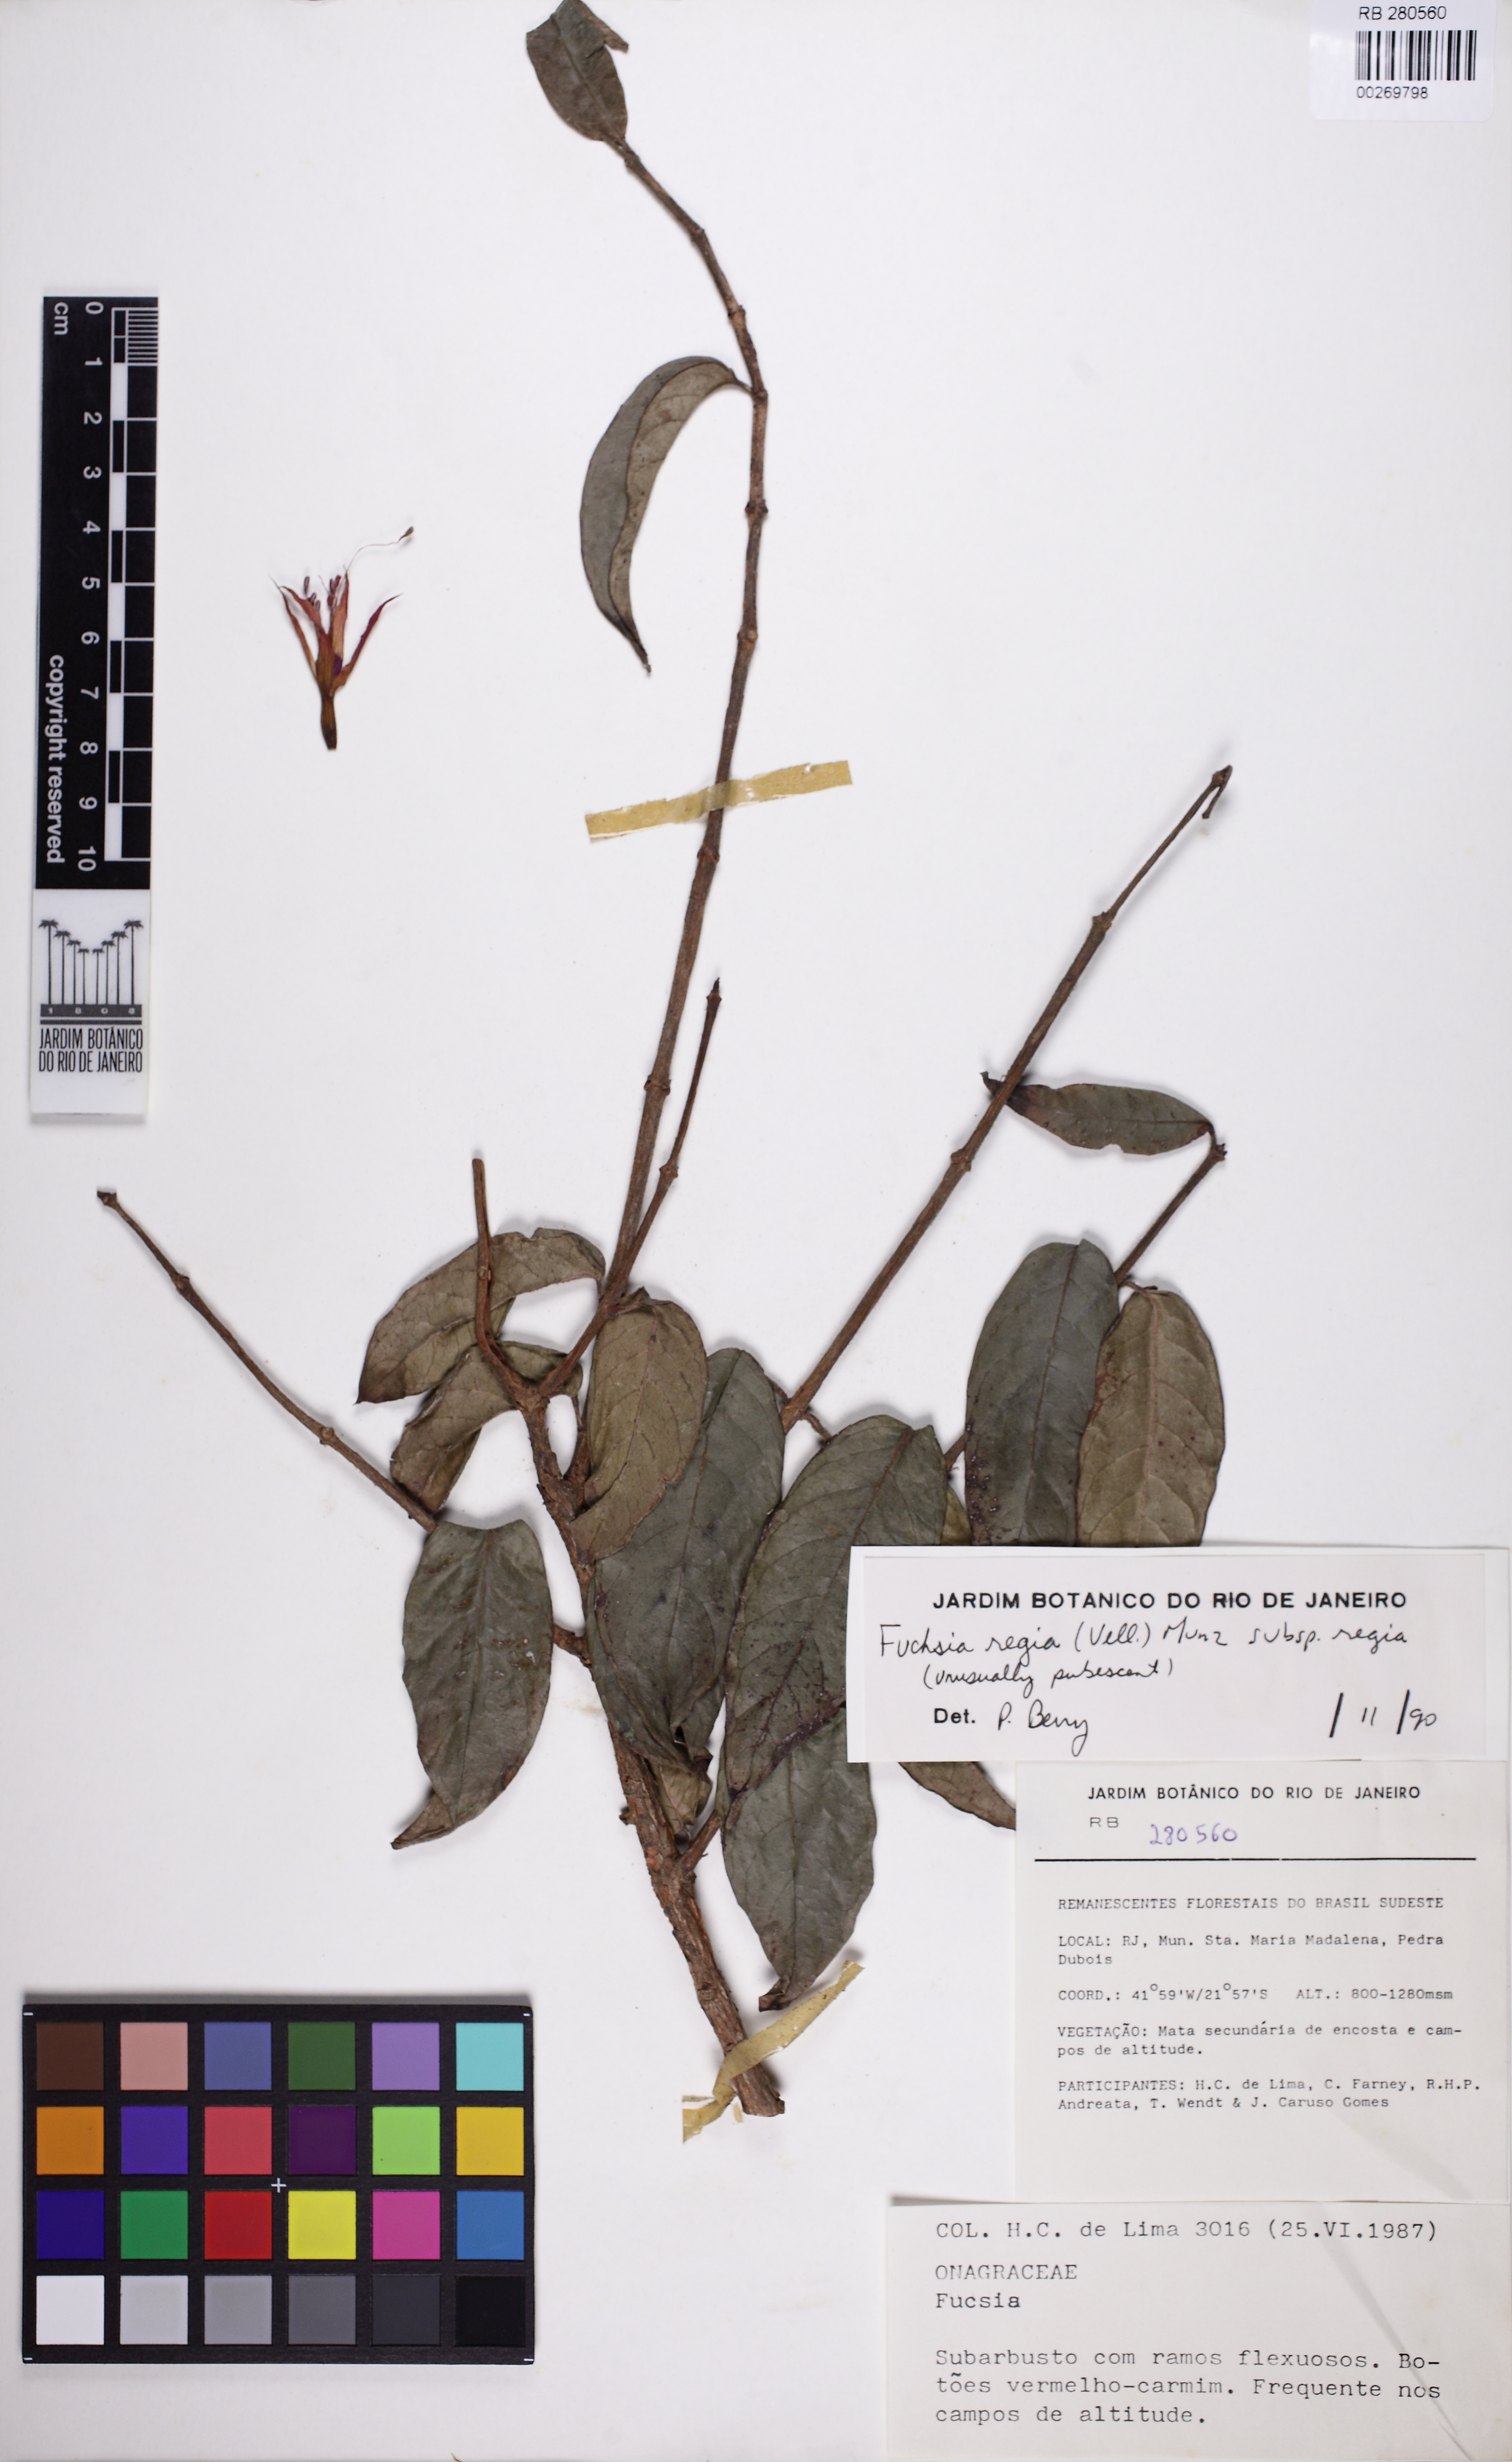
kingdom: Plantae
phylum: Tracheophyta
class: Magnoliopsida
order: Myrtales
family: Onagraceae
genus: Fuchsia
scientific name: Fuchsia regia
